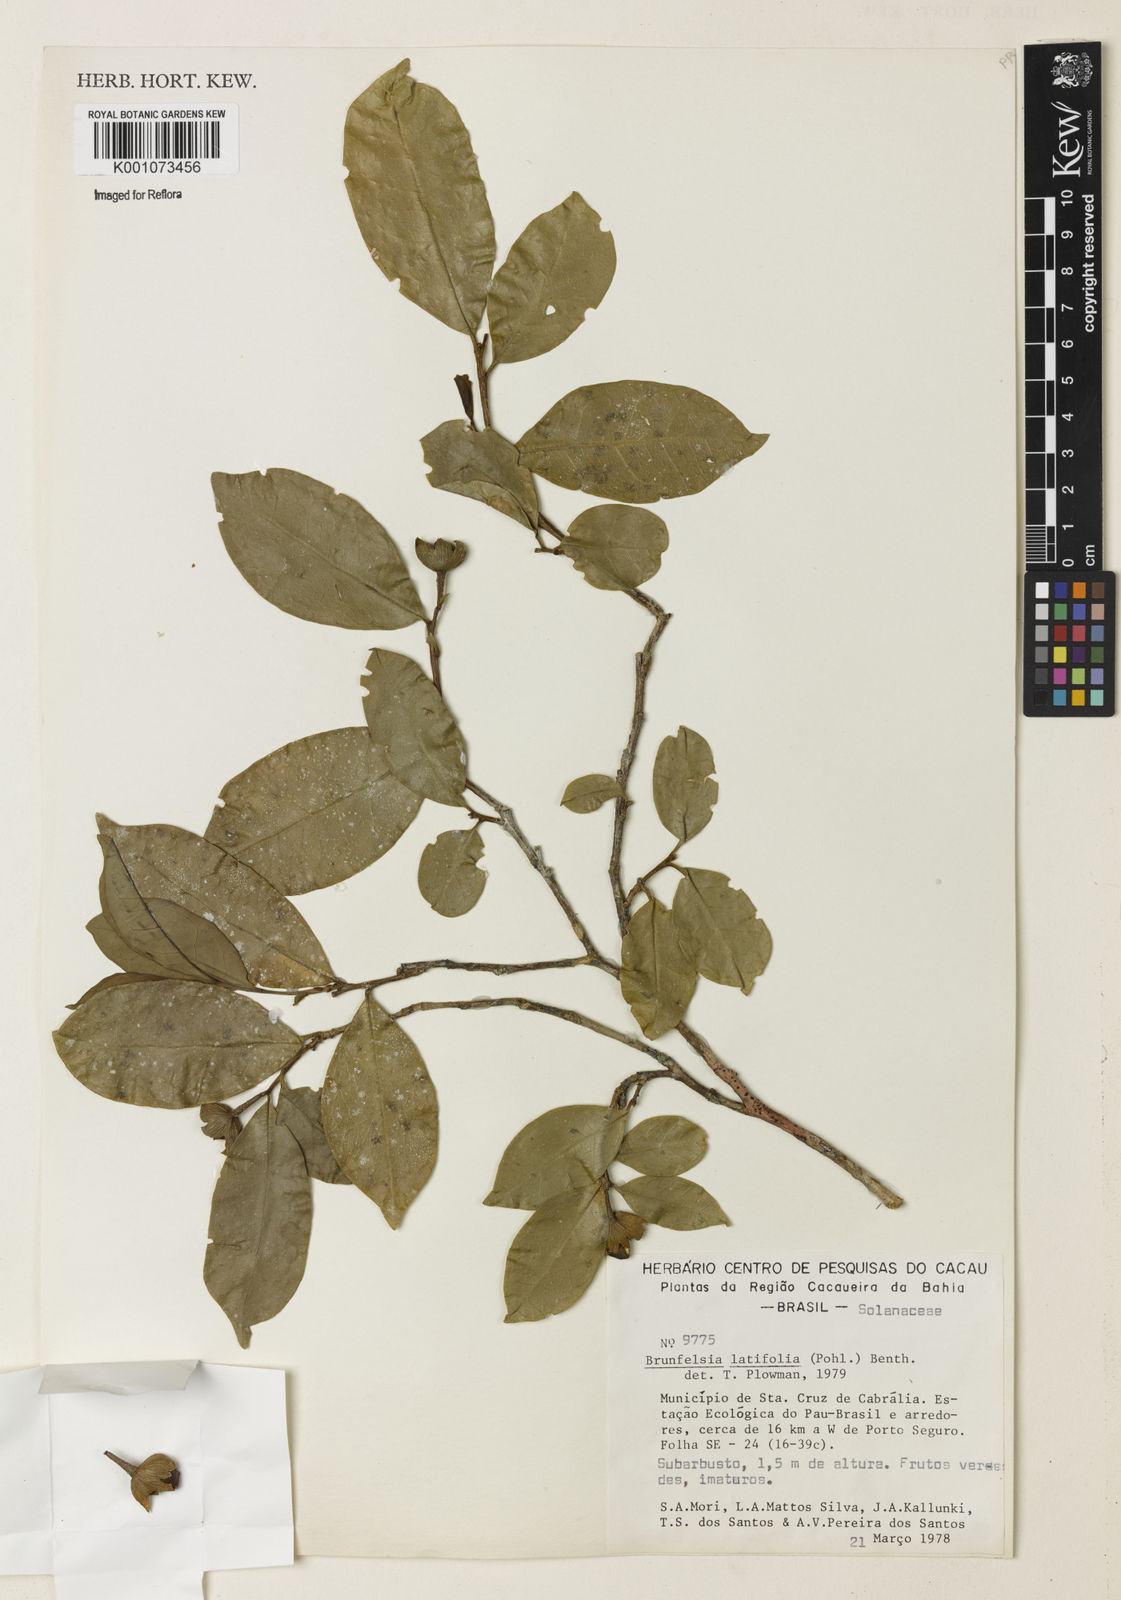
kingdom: Plantae
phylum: Tracheophyta
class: Magnoliopsida
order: Solanales
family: Solanaceae
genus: Brunfelsia
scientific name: Brunfelsia latifolia
